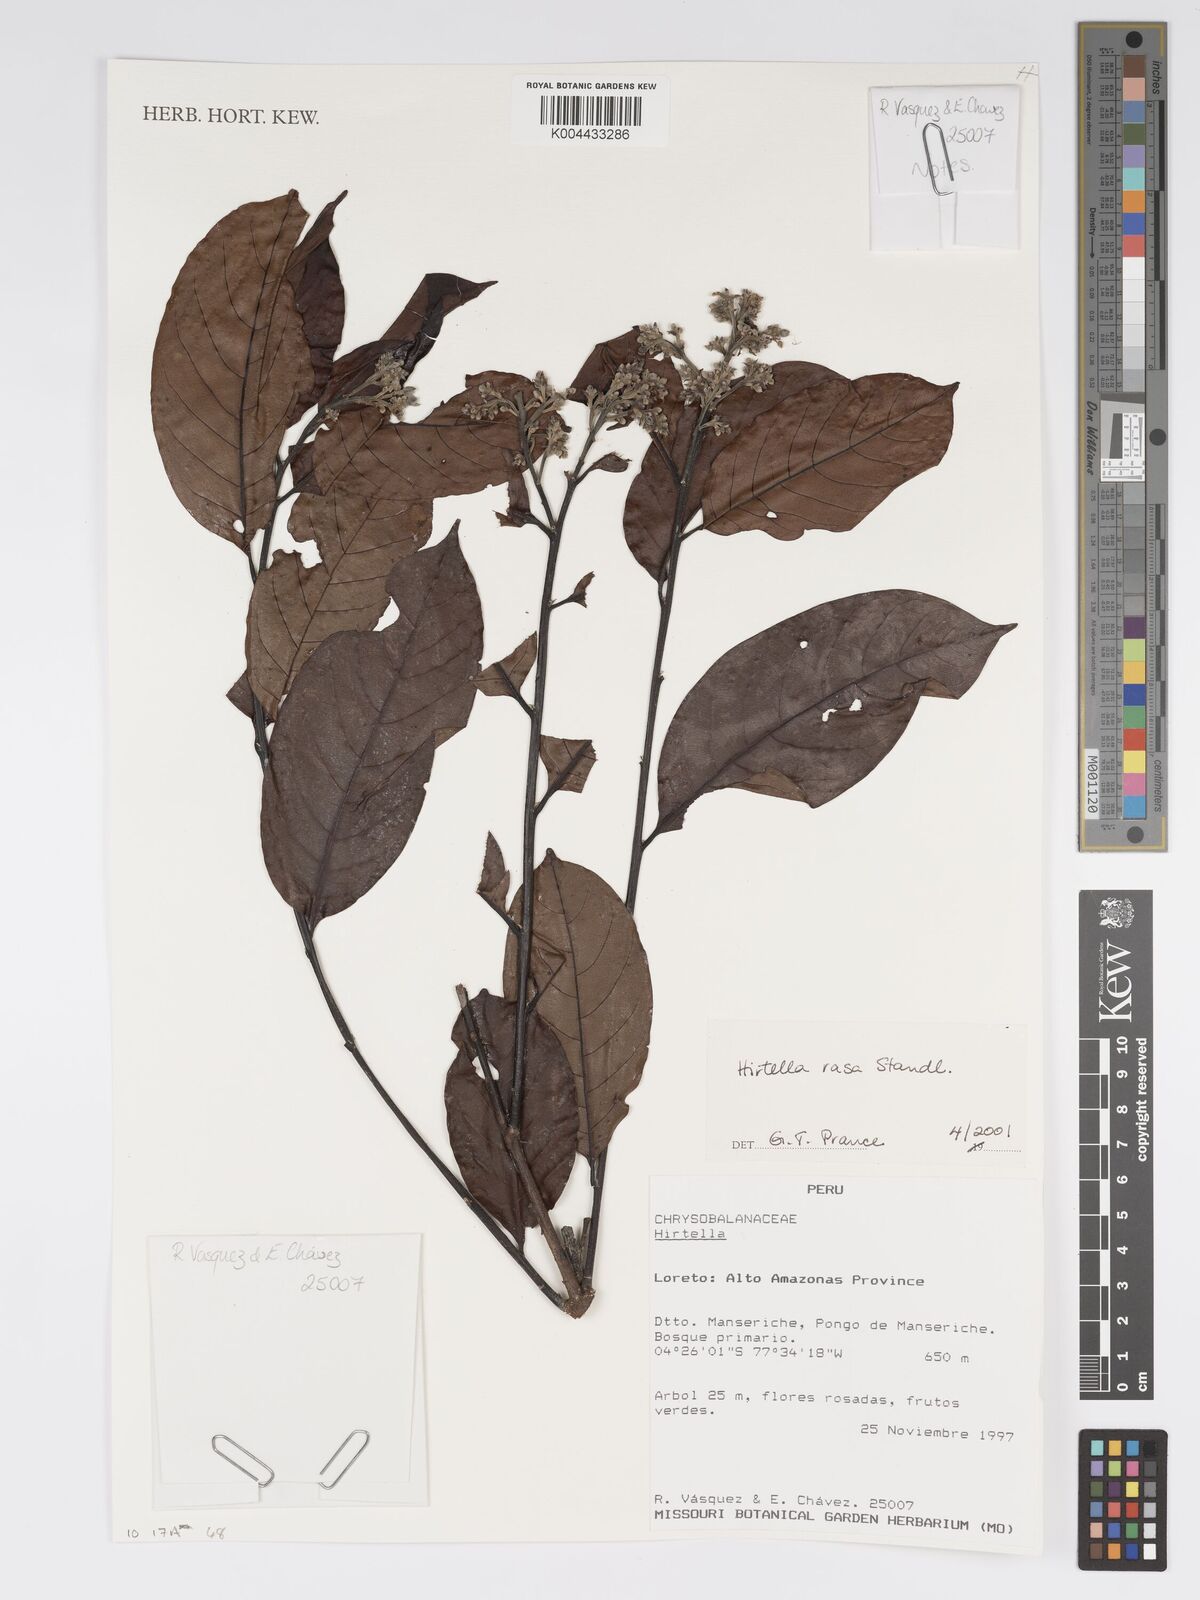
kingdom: Plantae
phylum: Tracheophyta
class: Magnoliopsida
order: Malpighiales
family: Chrysobalanaceae
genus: Hirtella
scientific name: Hirtella rasa
